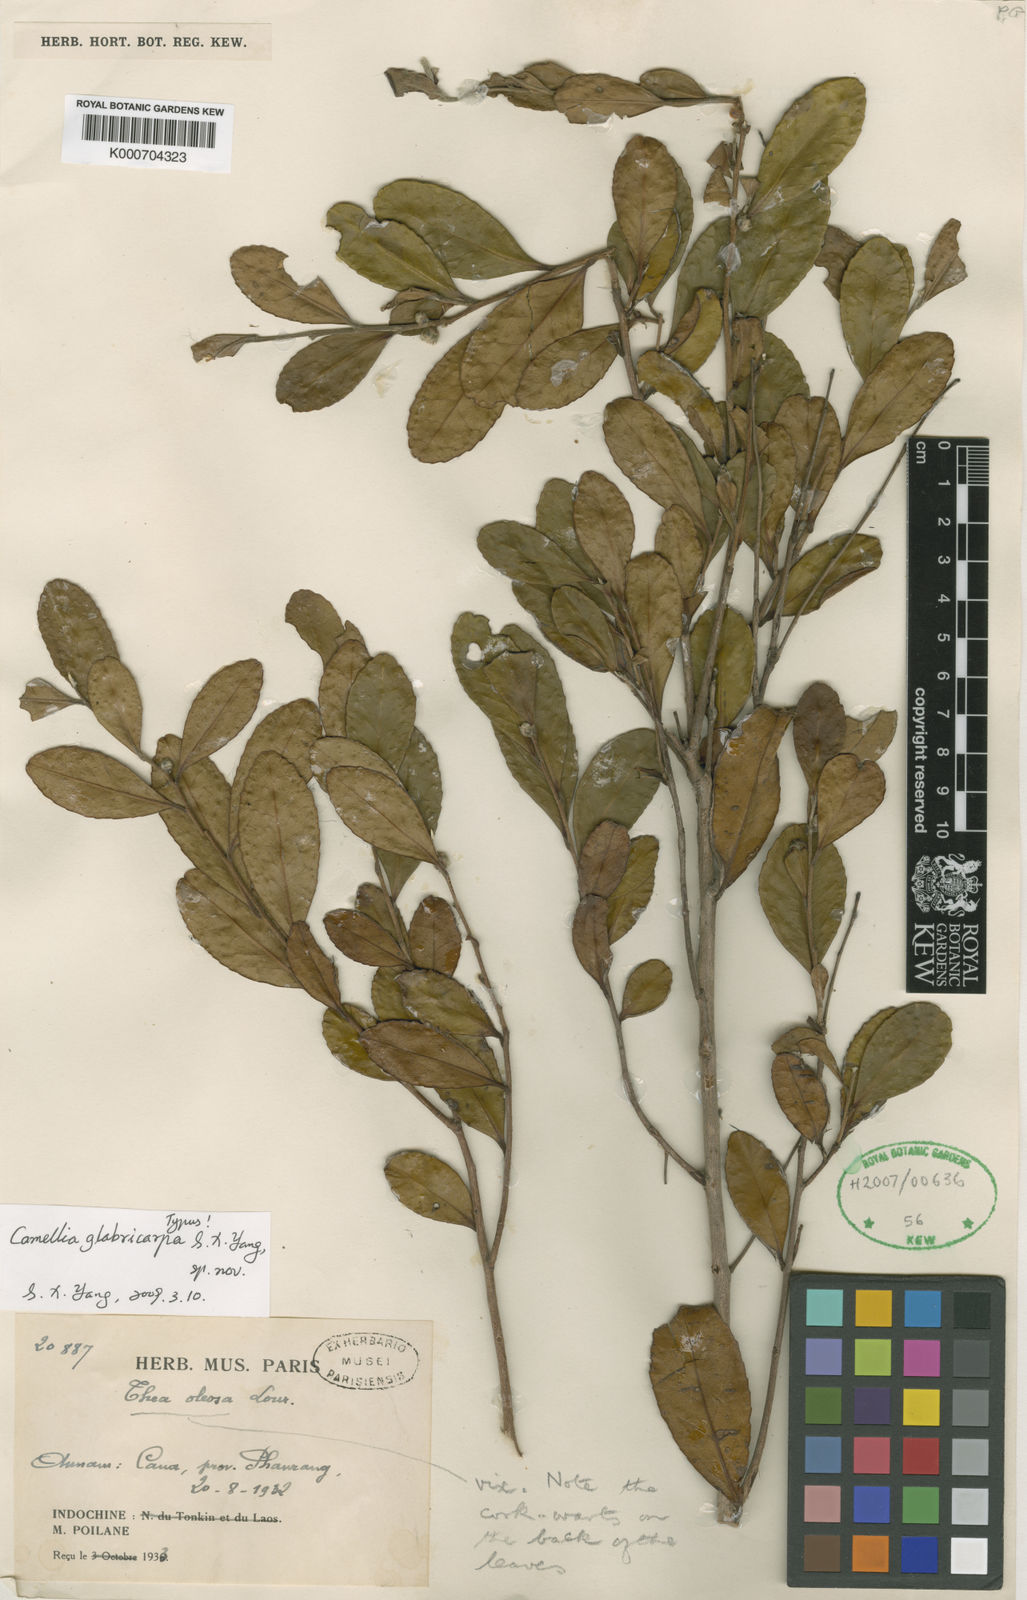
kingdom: Plantae
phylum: Tracheophyta
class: Magnoliopsida
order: Ericales
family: Theaceae
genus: Camellia
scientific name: Camellia
